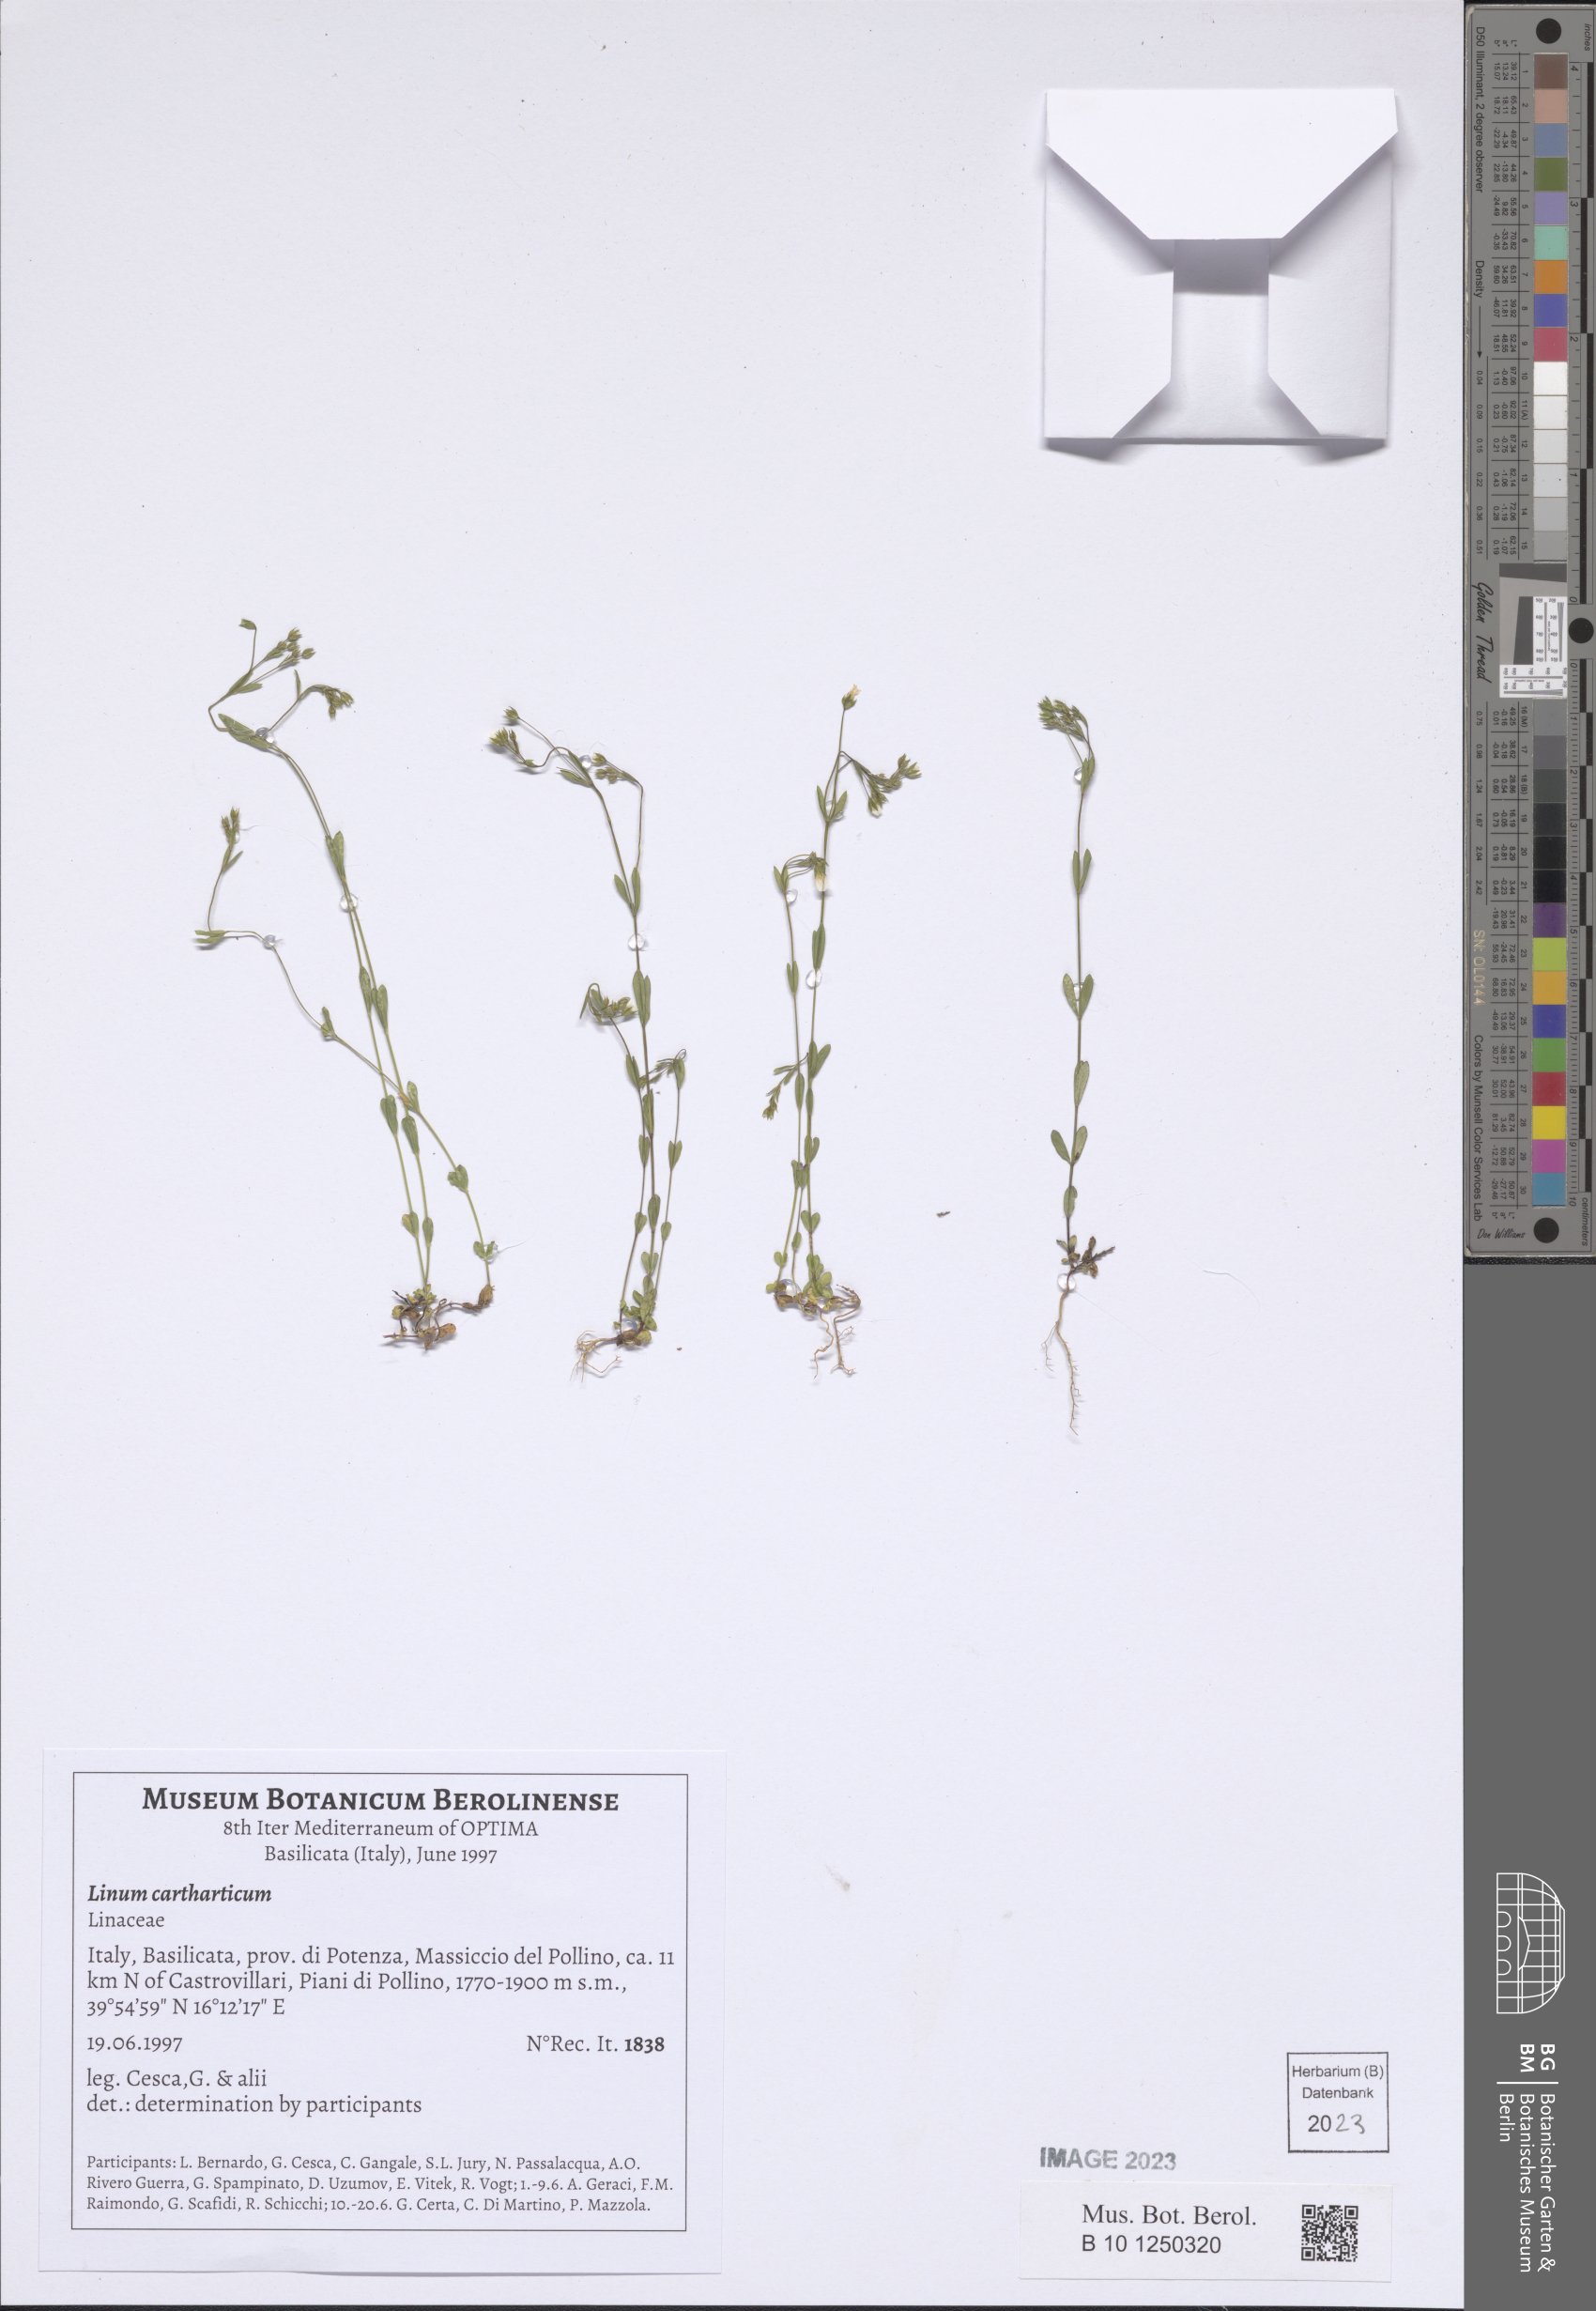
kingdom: Plantae
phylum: Tracheophyta
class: Magnoliopsida
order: Malpighiales
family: Linaceae
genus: Linum
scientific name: Linum catharticum
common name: Fairy flax
